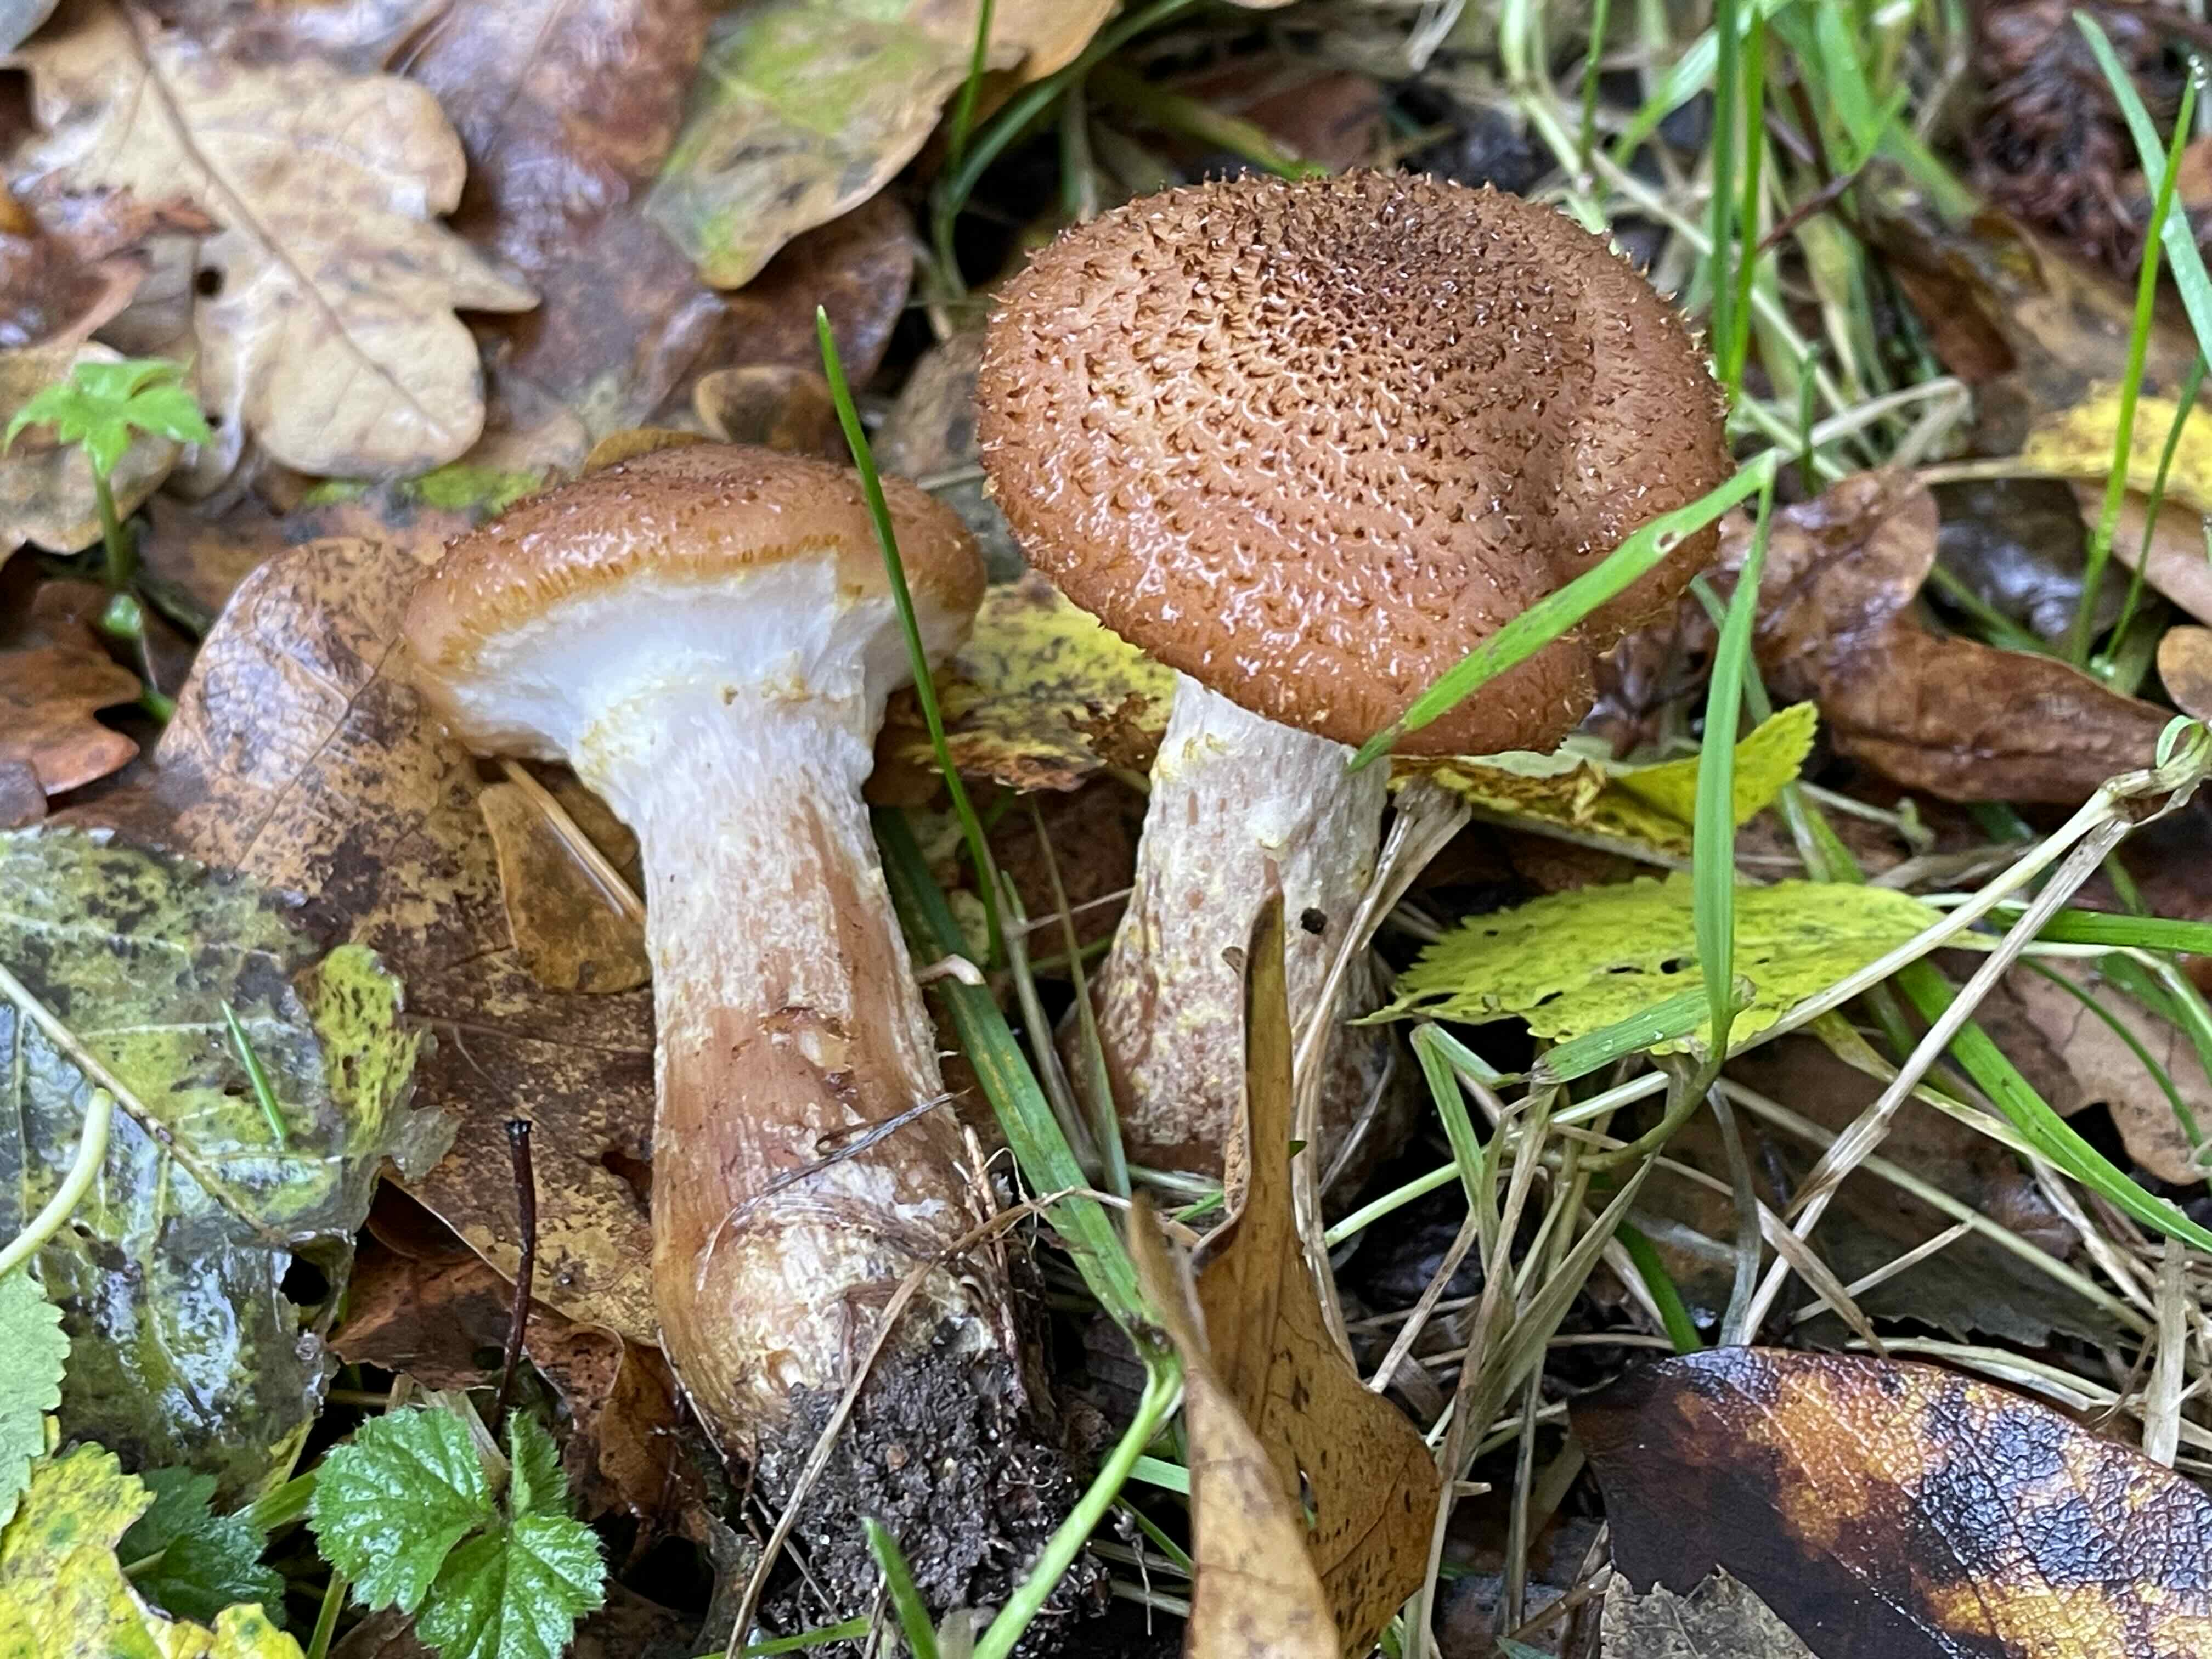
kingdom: Fungi
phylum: Basidiomycota
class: Agaricomycetes
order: Agaricales
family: Physalacriaceae
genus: Armillaria
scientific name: Armillaria lutea
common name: køllestokket honningsvamp
